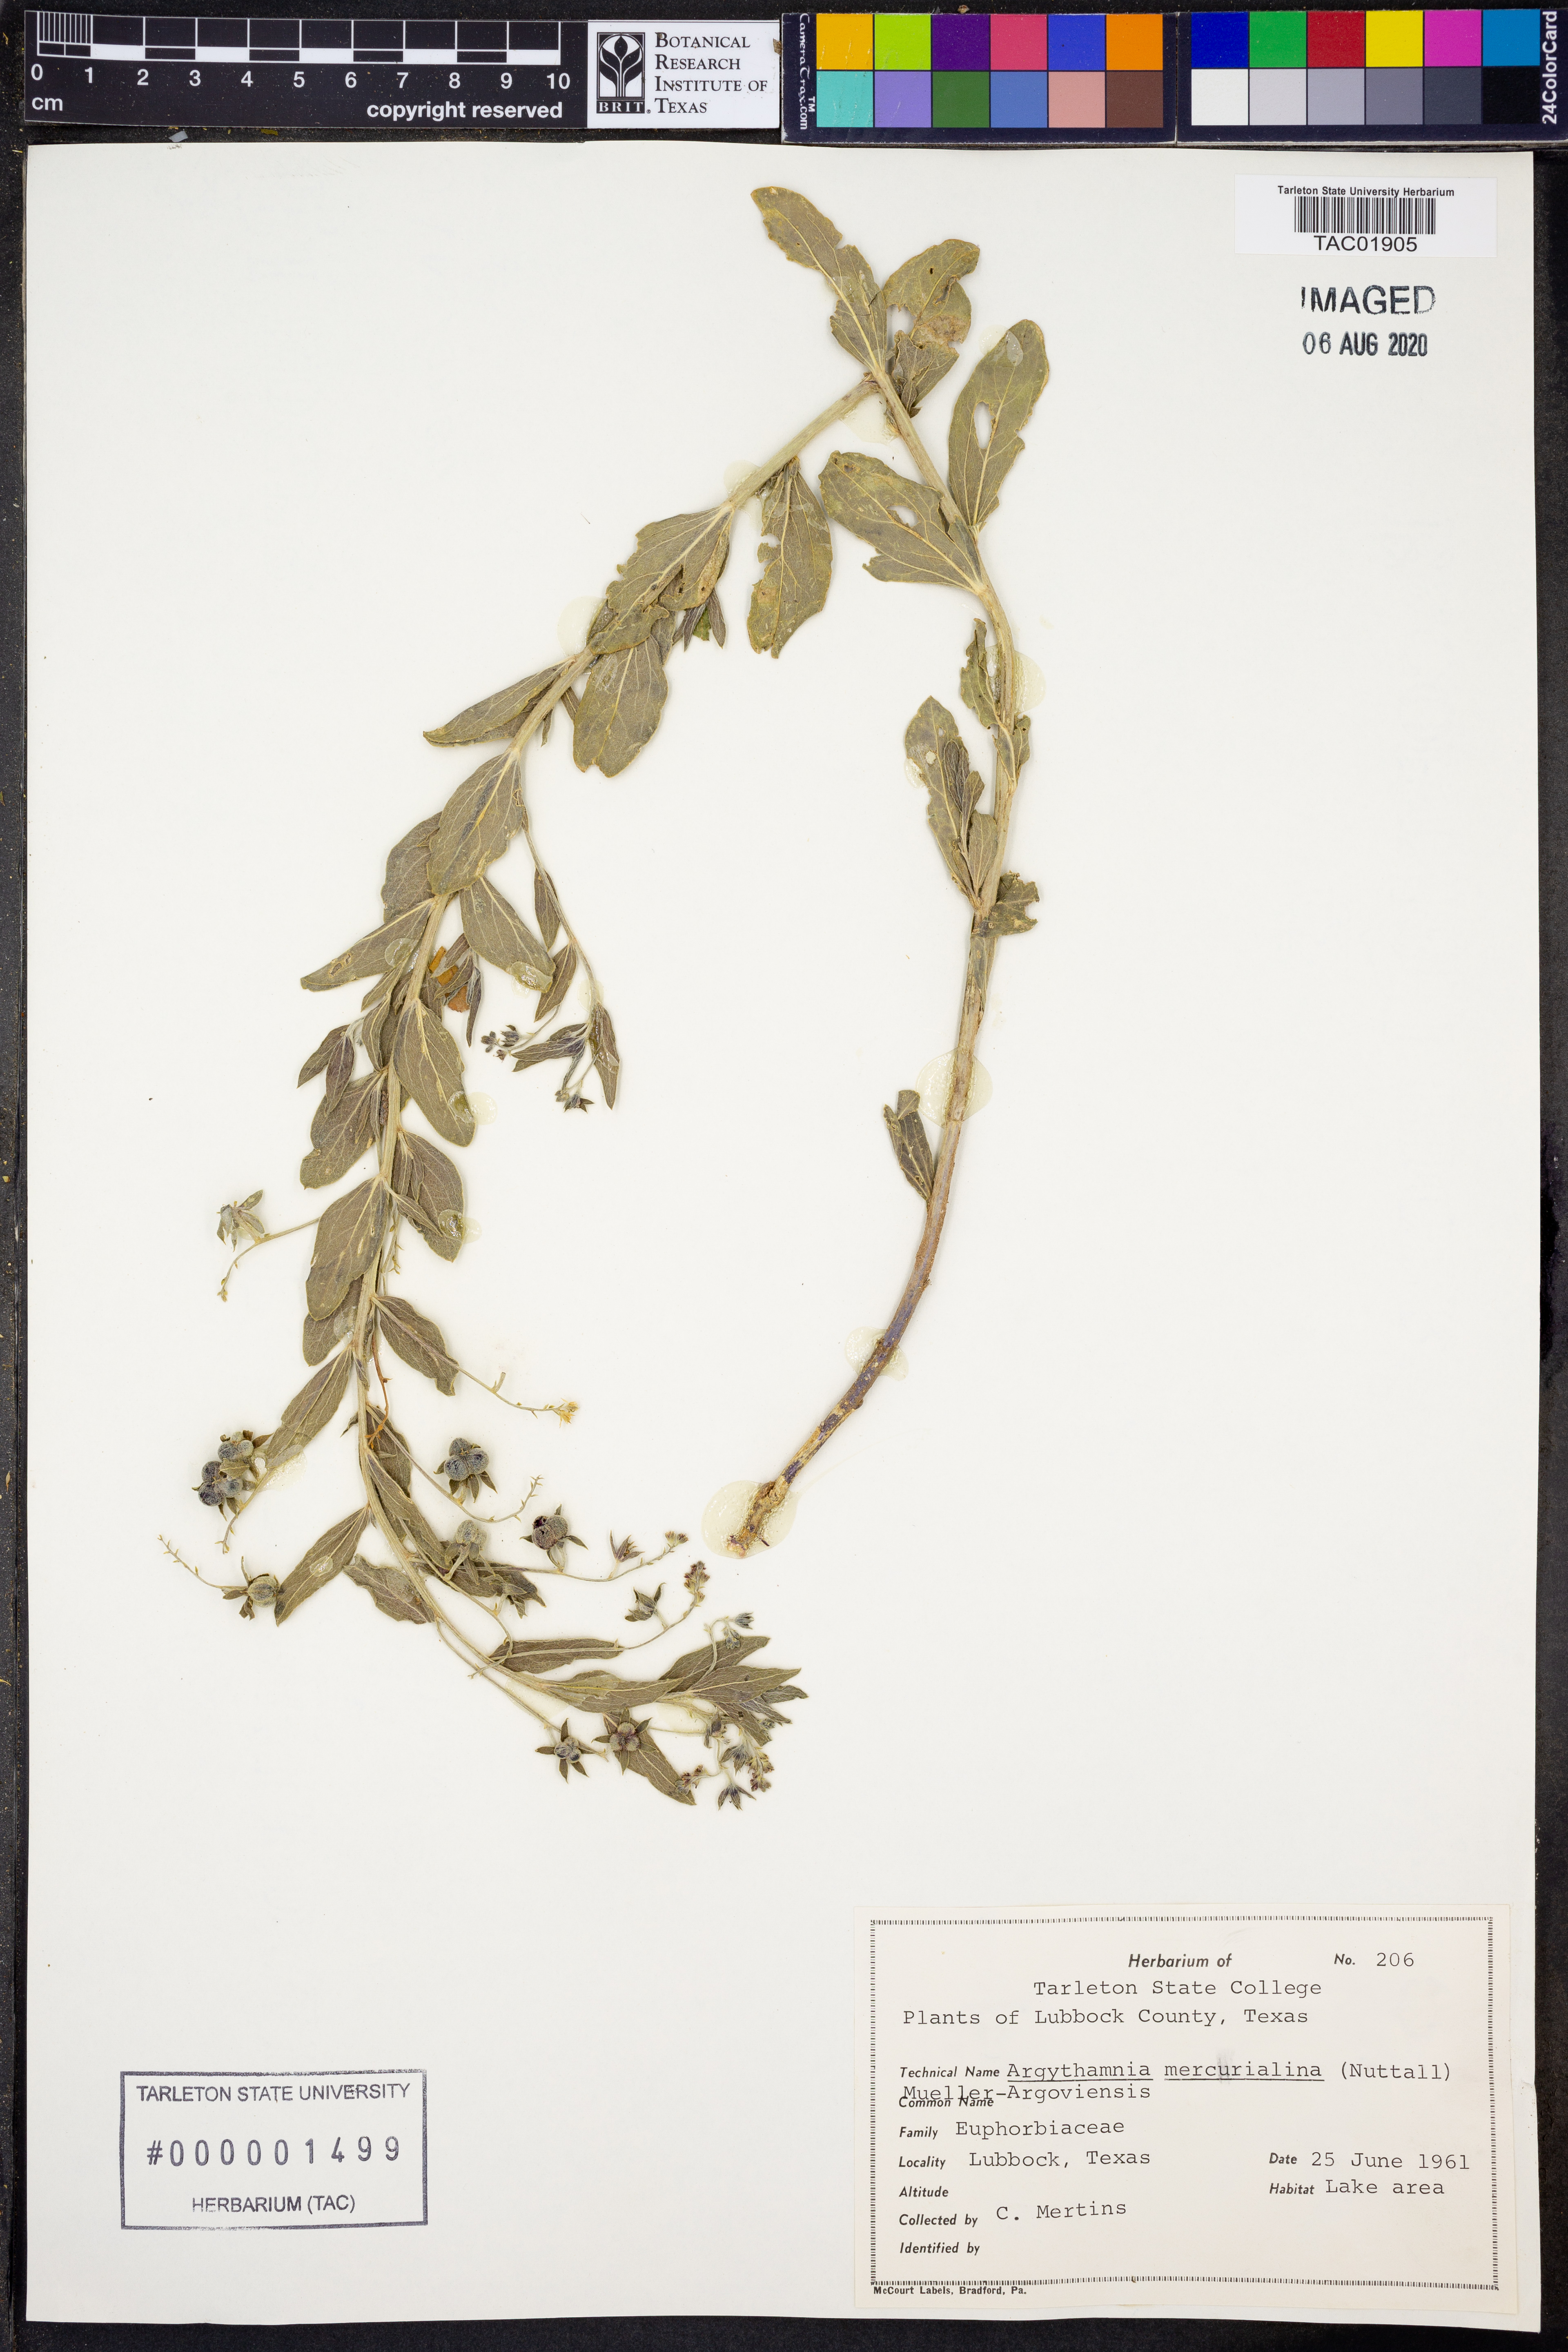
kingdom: Plantae
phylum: Tracheophyta
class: Magnoliopsida
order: Malpighiales
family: Euphorbiaceae
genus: Ditaxis
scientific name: Ditaxis mercurialina
